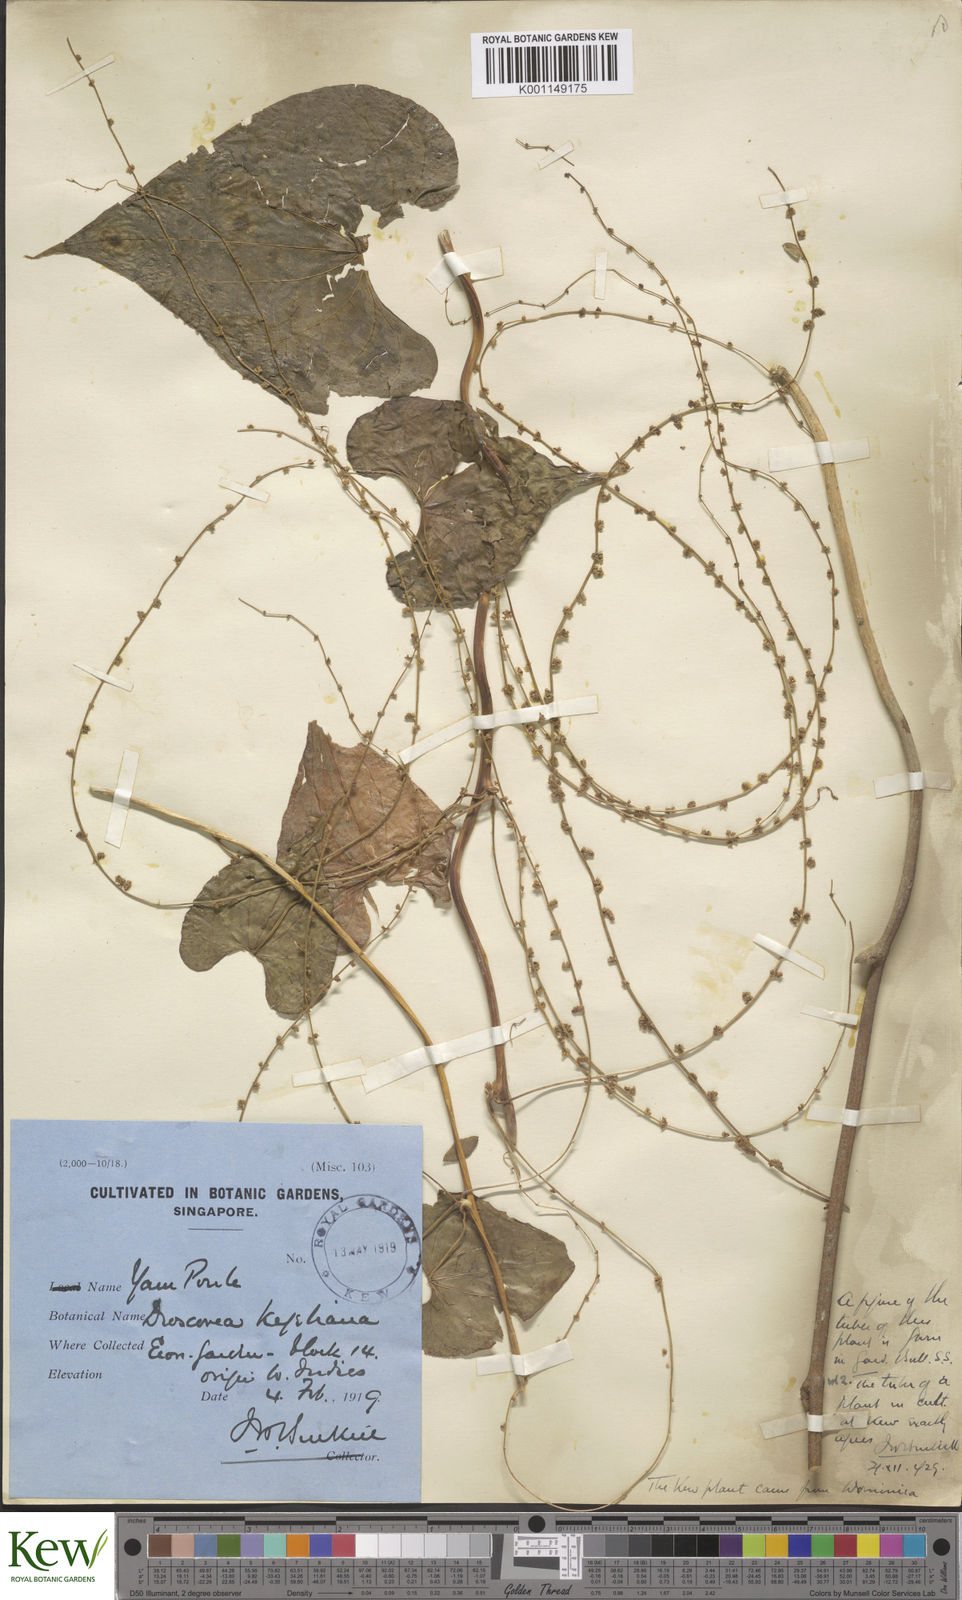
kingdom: Plantae
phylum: Tracheophyta
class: Liliopsida
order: Dioscoreales
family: Dioscoreaceae
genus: Dioscorea
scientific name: Dioscorea polygonoides
